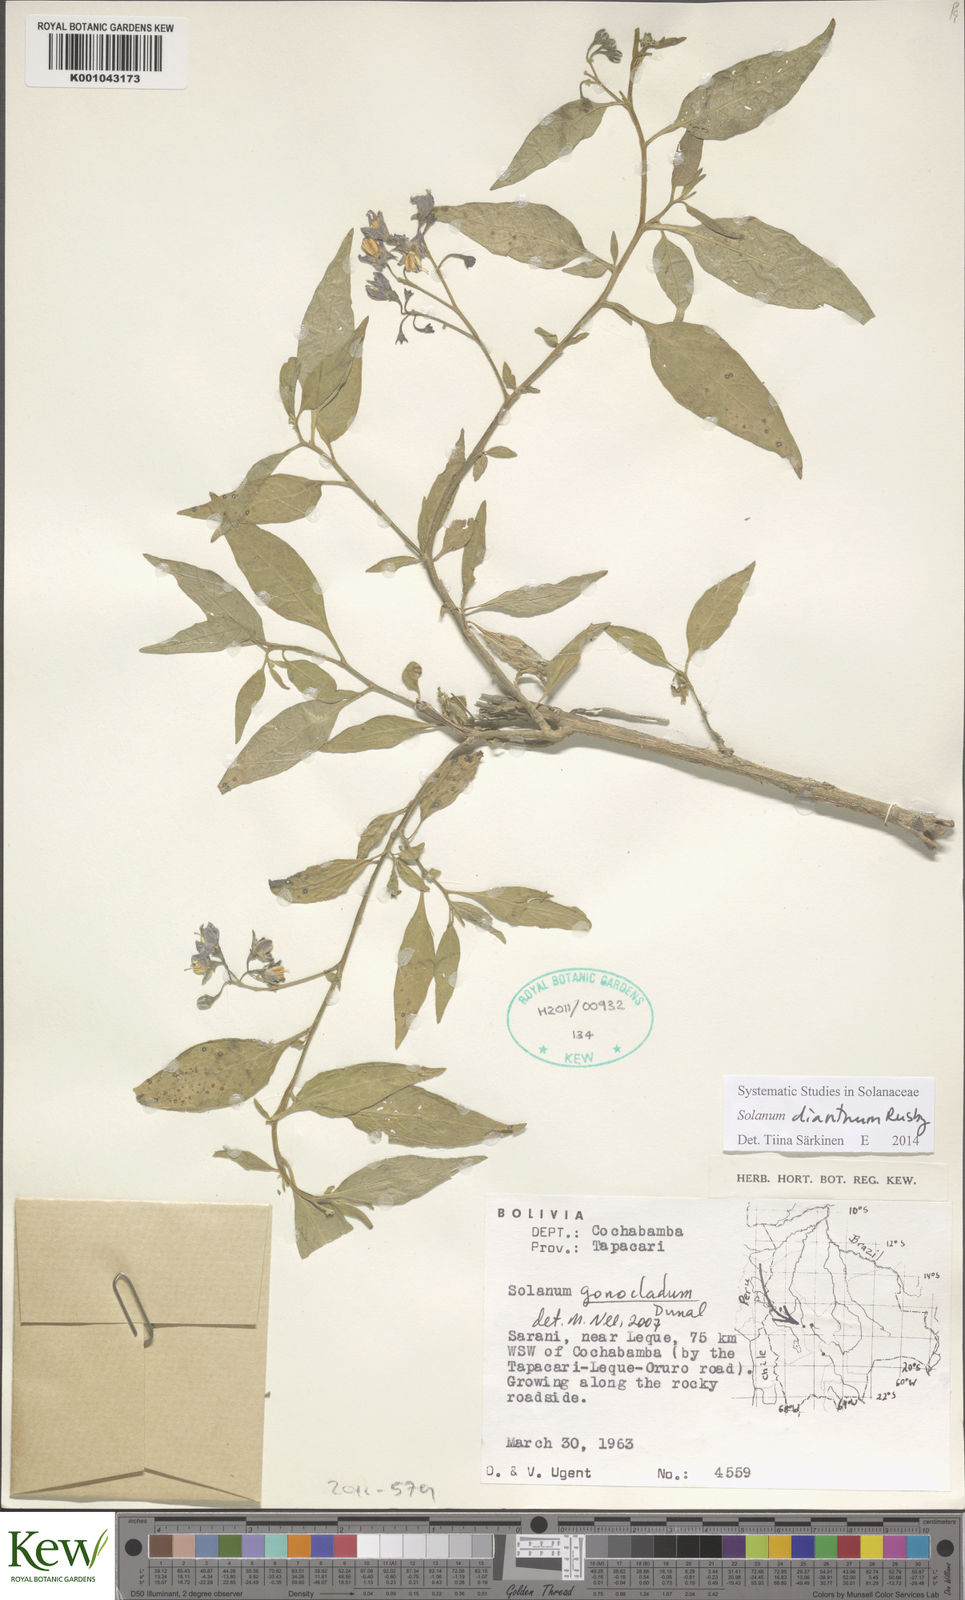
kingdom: Plantae
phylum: Tracheophyta
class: Magnoliopsida
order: Solanales
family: Solanaceae
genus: Solanum
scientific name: Solanum probolospermum
